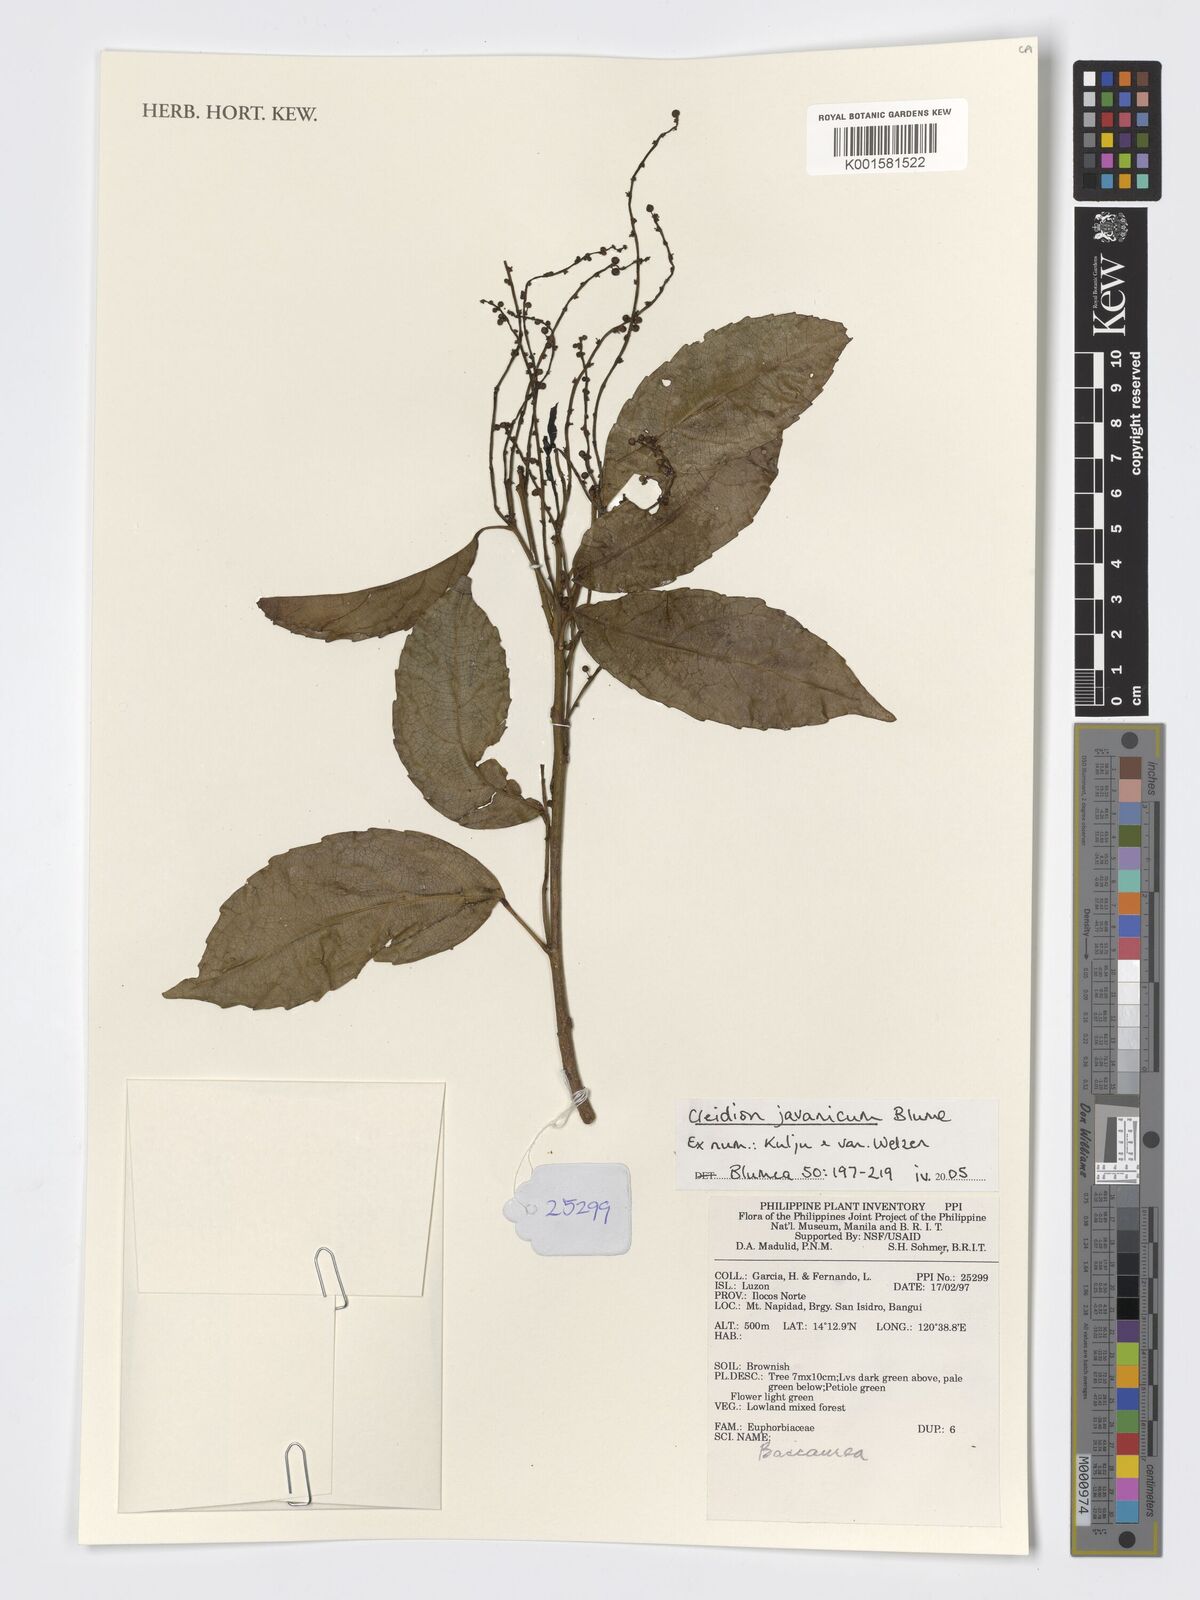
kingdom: Plantae
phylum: Tracheophyta
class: Magnoliopsida
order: Malpighiales
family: Euphorbiaceae
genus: Cleidion
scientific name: Cleidion javanicum
